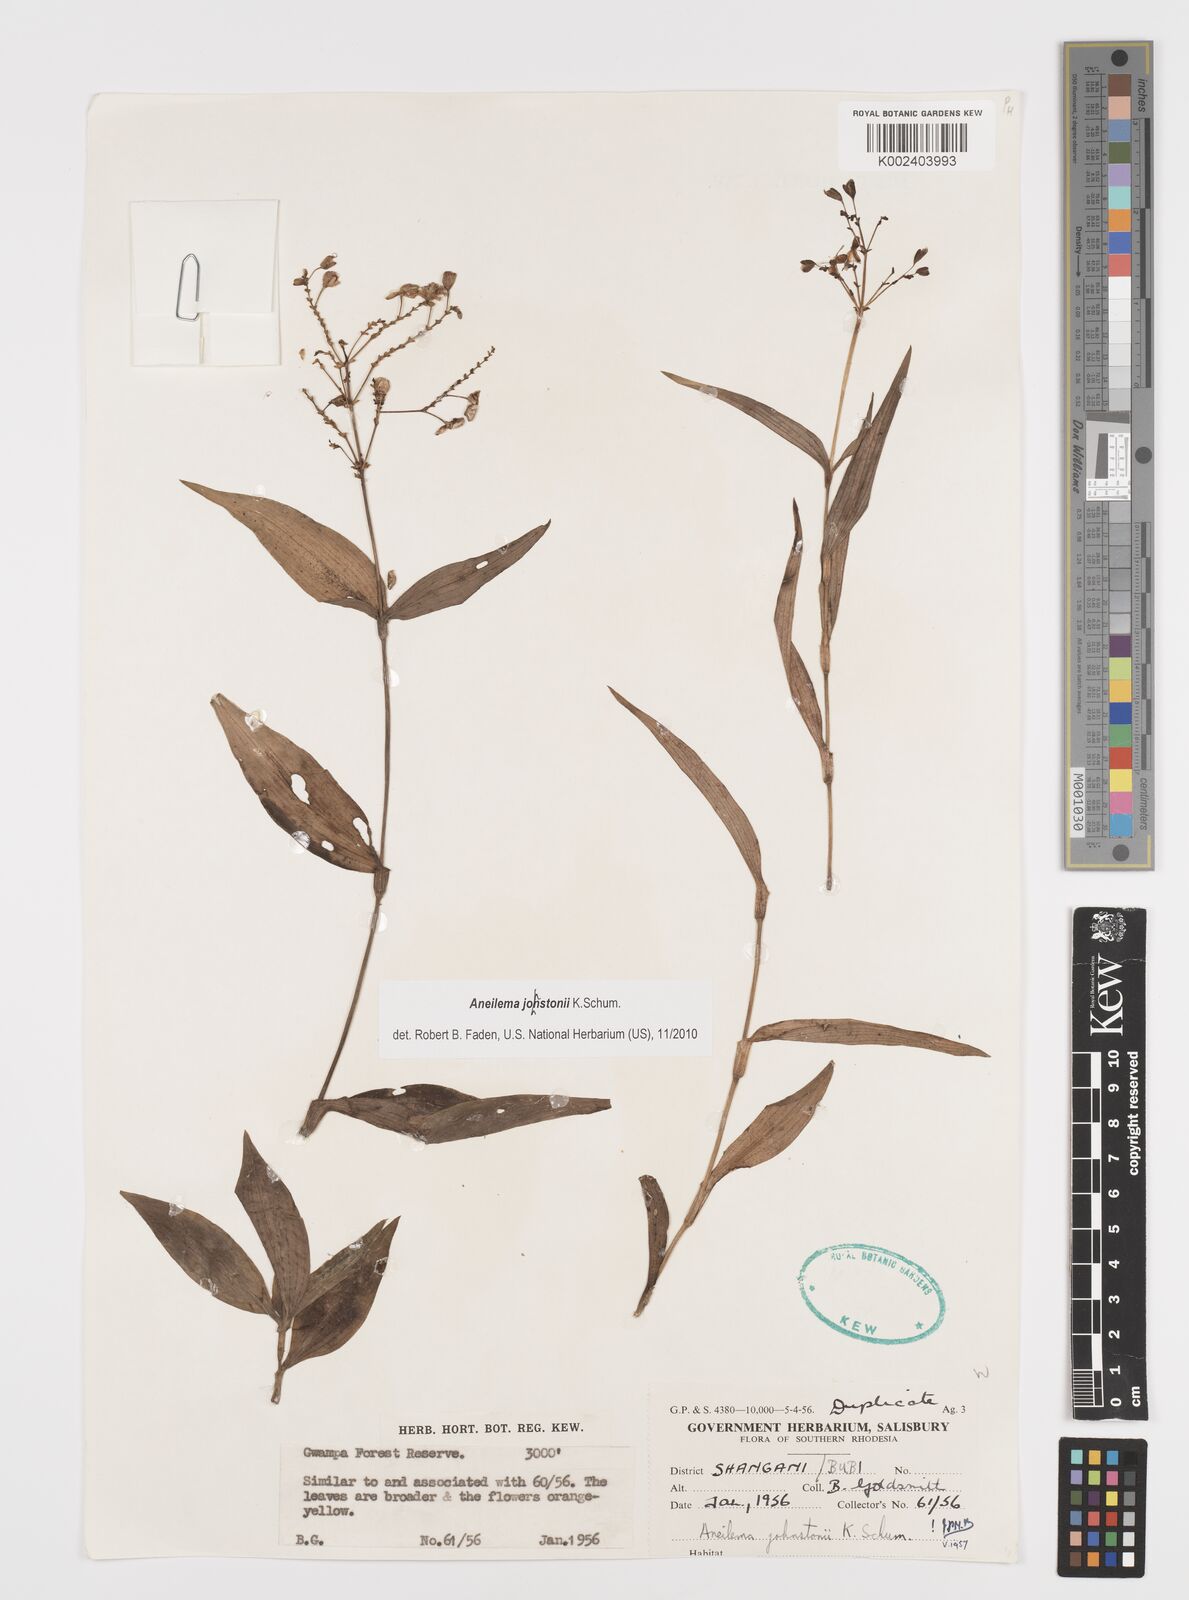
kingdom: Plantae
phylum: Tracheophyta
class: Liliopsida
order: Commelinales
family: Commelinaceae
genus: Aneilema
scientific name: Aneilema johnstonii
